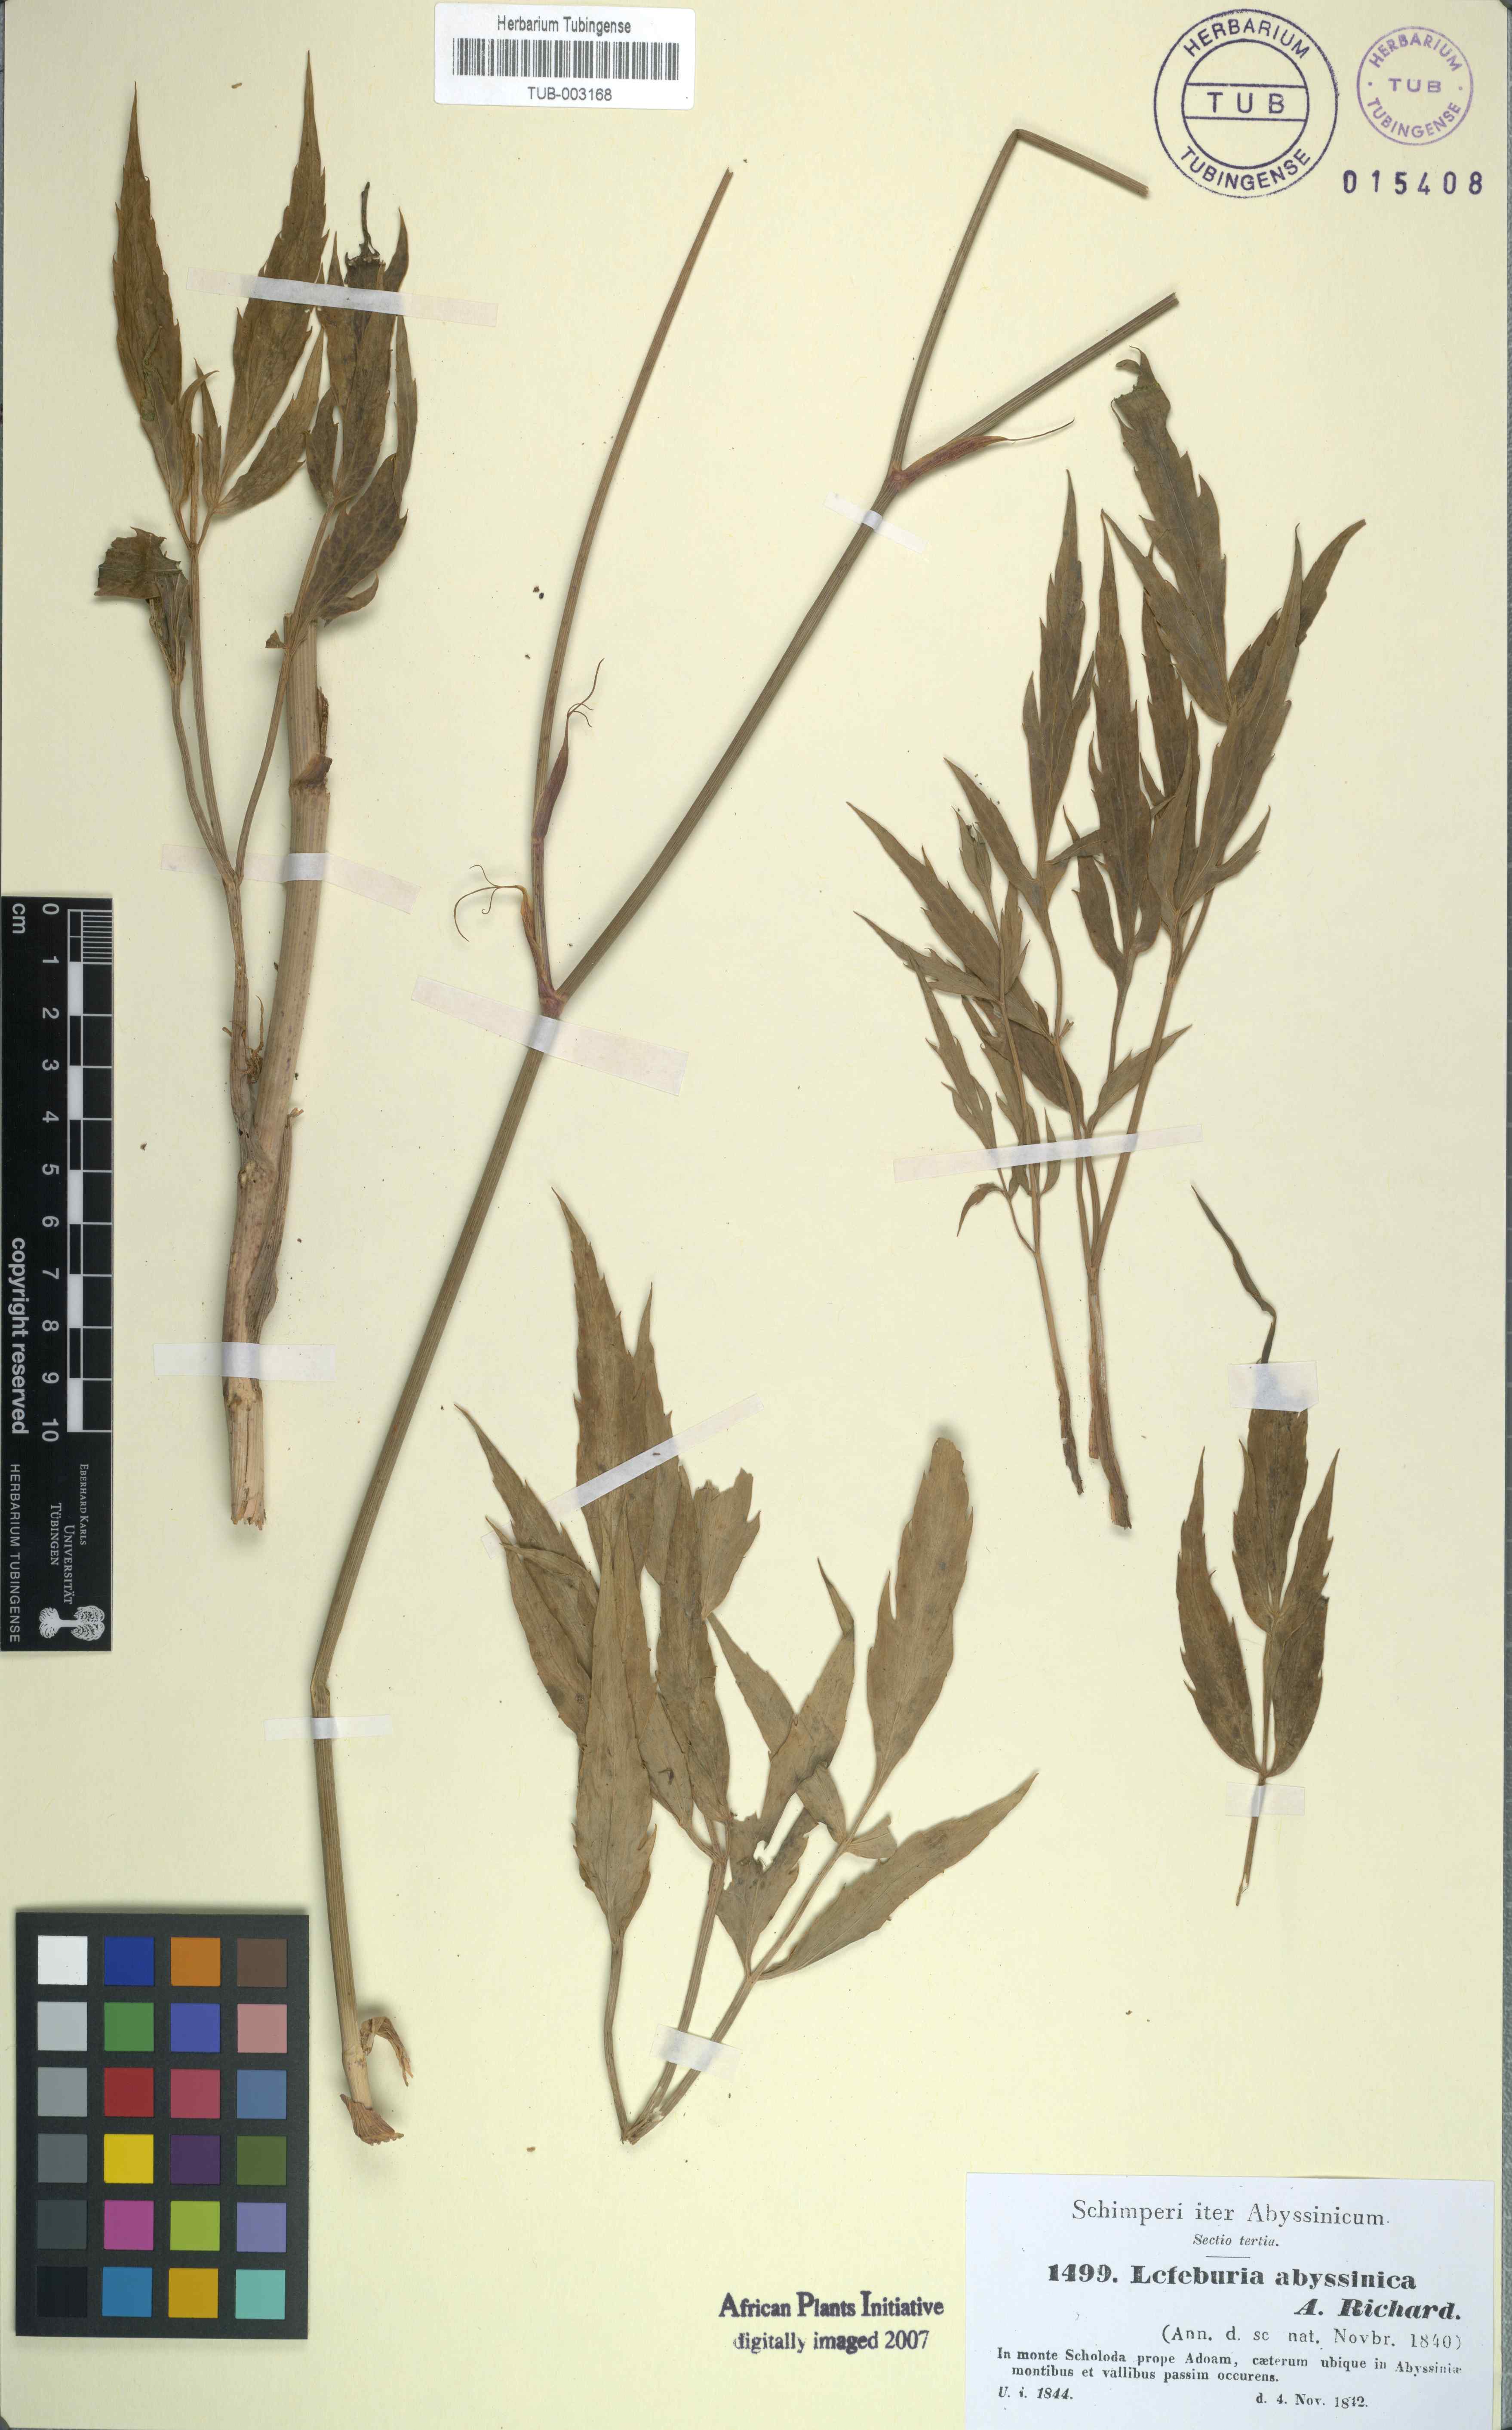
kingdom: Plantae
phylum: Tracheophyta
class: Magnoliopsida
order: Apiales
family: Apiaceae
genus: Lefebvrea
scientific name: Lefebvrea abyssinica
